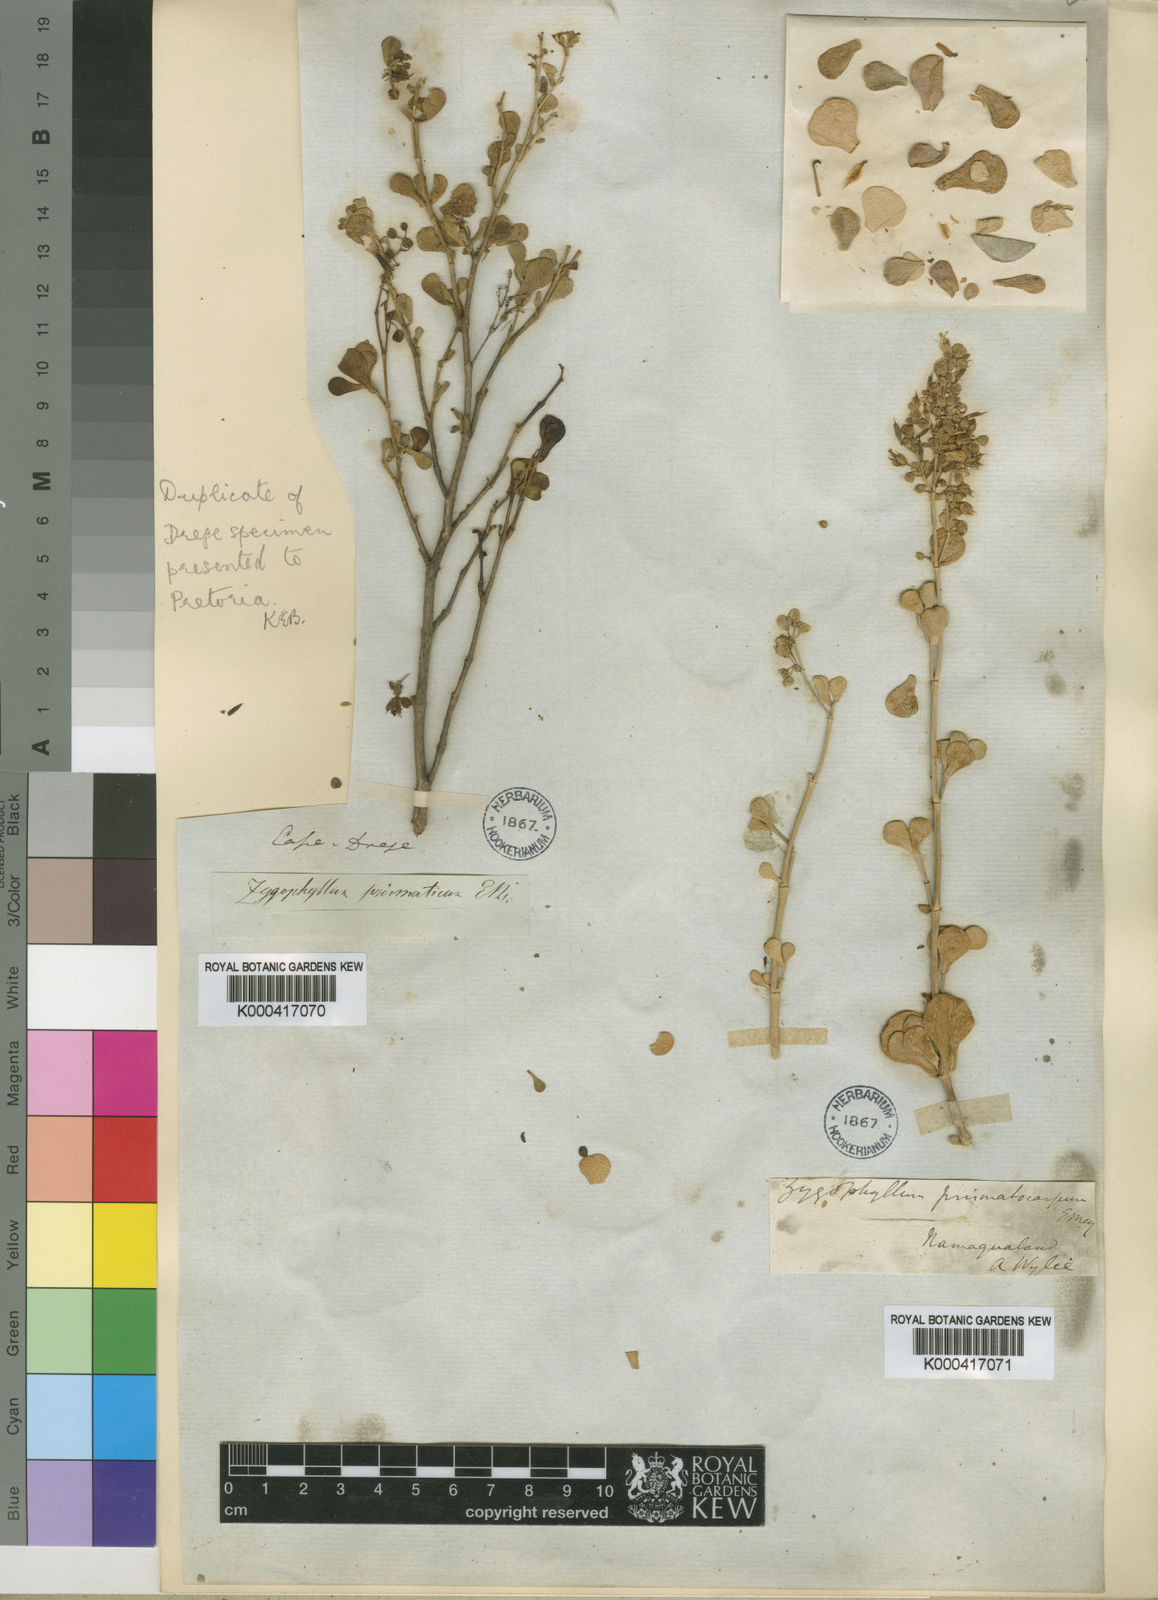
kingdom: Plantae
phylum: Tracheophyta
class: Magnoliopsida
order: Zygophyllales
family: Zygophyllaceae
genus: Tetraena
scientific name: Tetraena prismatocarpa
